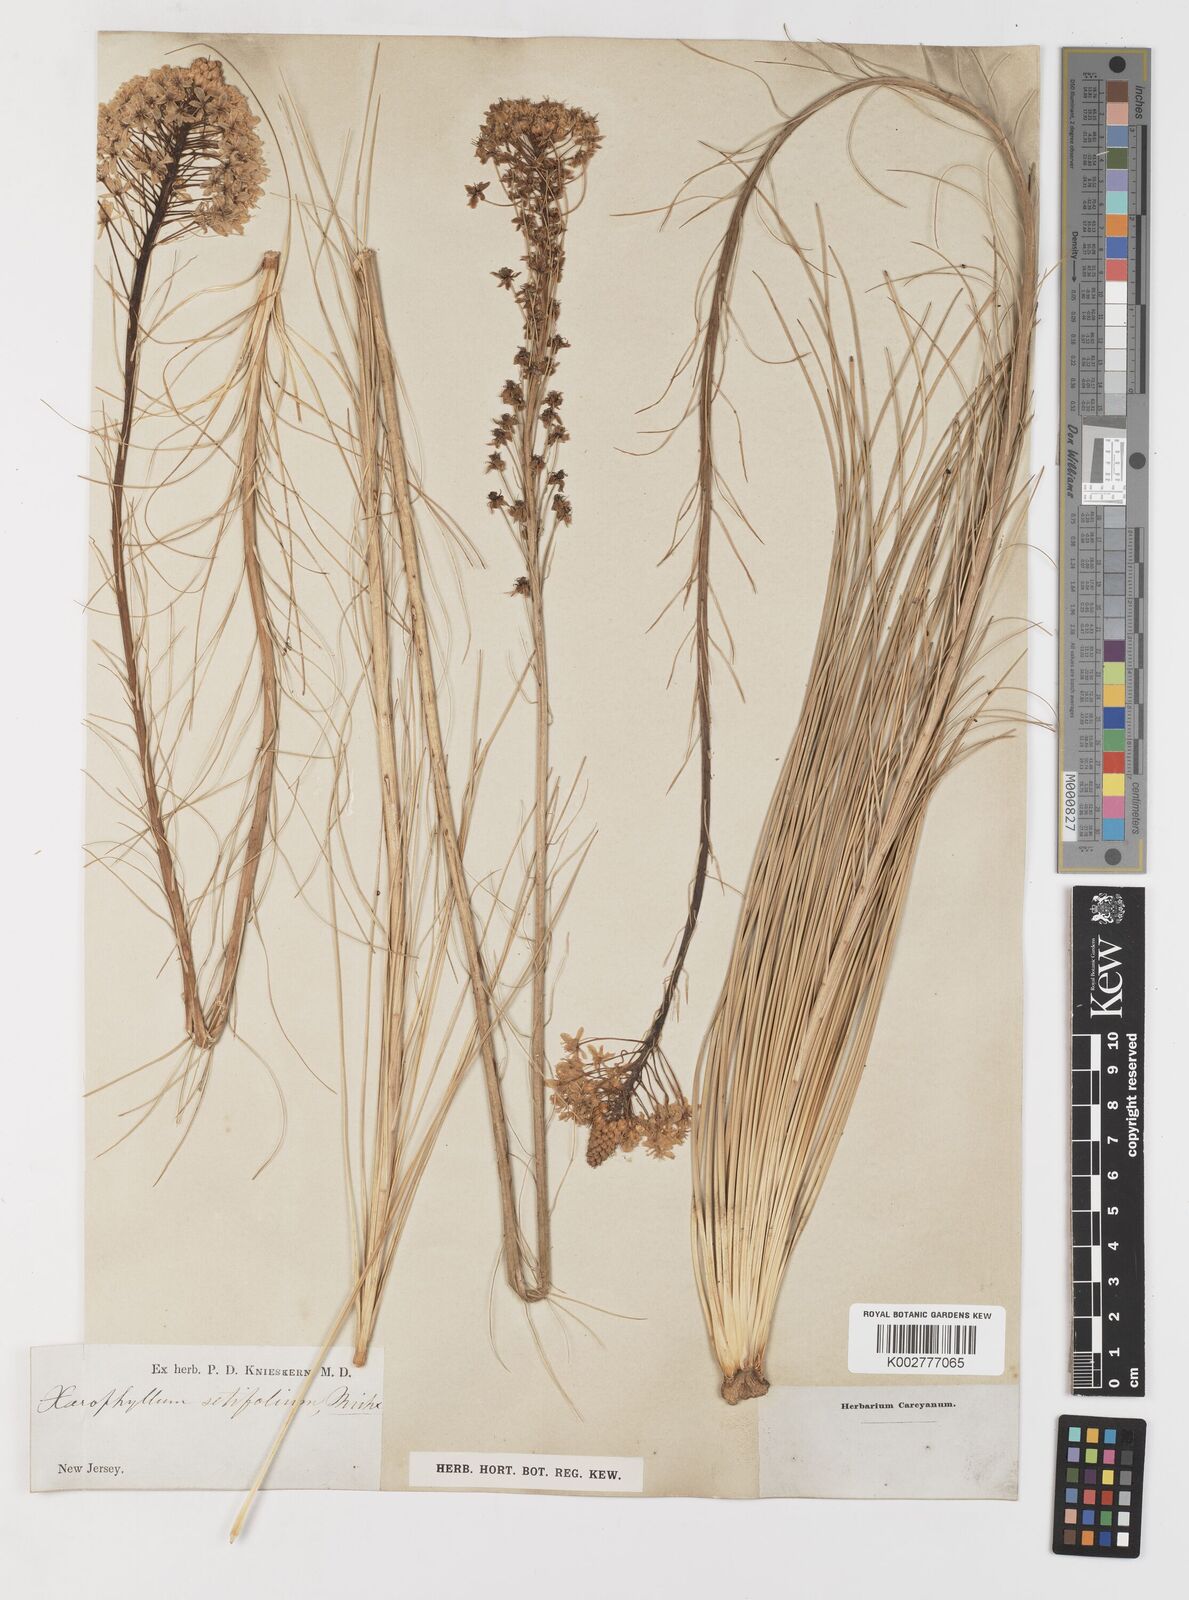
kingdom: Plantae
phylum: Tracheophyta
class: Liliopsida
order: Liliales
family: Melanthiaceae
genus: Xerophyllum
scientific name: Xerophyllum asphodeloides
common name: Mountain-asphodel
